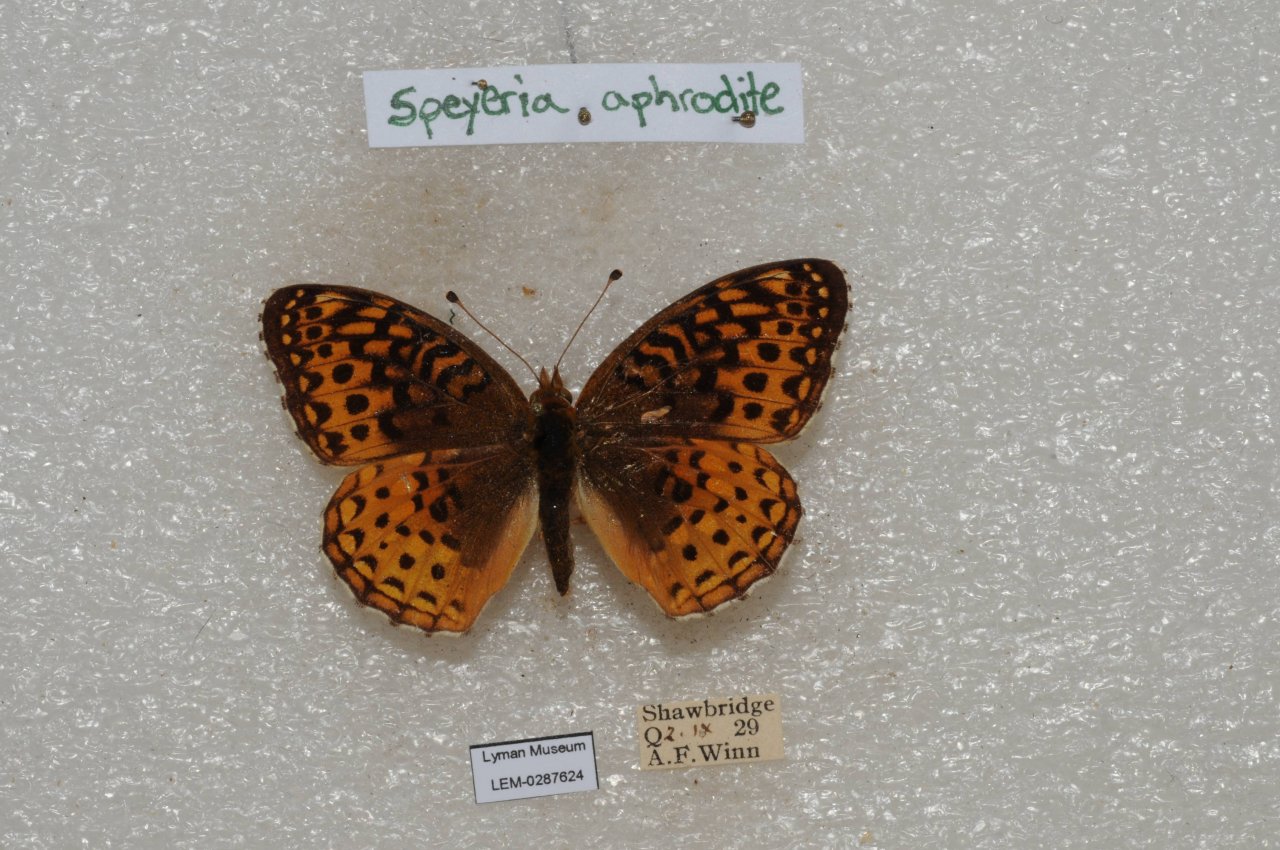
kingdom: Animalia
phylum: Arthropoda
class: Insecta
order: Lepidoptera
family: Nymphalidae
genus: Speyeria
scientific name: Speyeria aphrodite
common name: Aphrodite Fritillary
